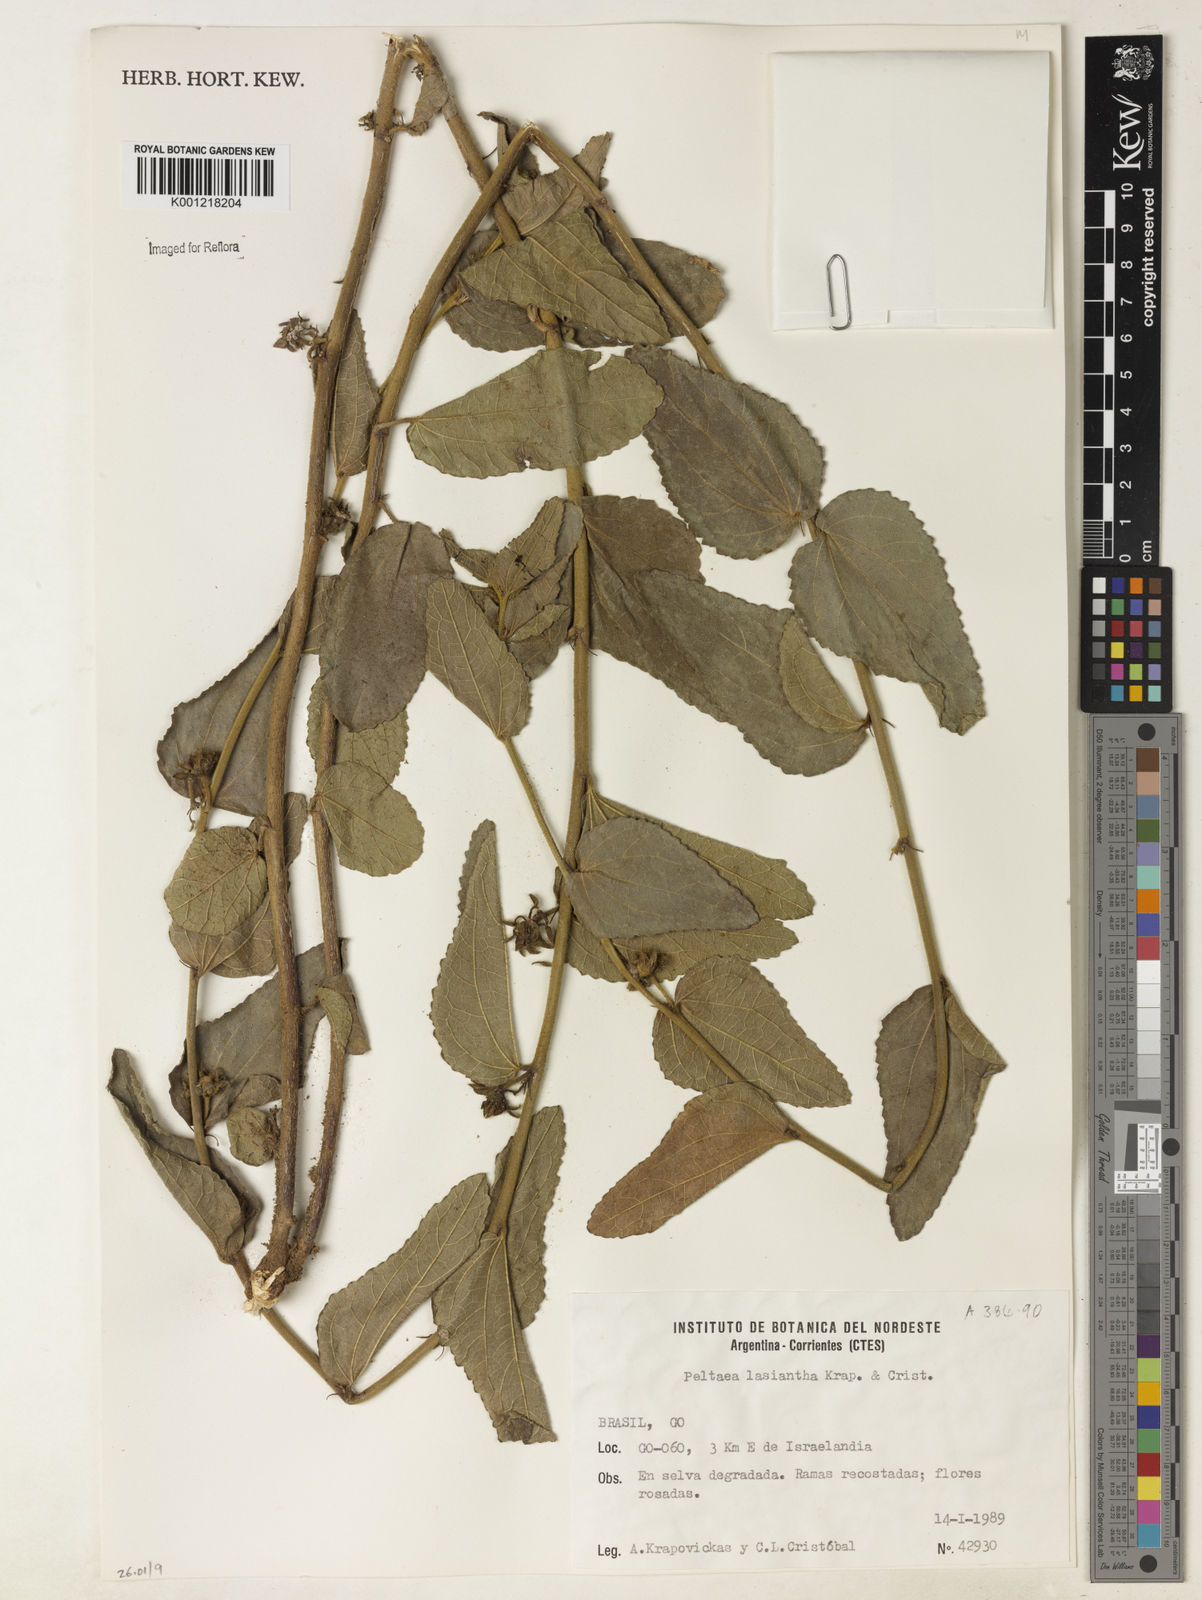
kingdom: Plantae
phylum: Tracheophyta
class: Magnoliopsida
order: Malvales
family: Malvaceae
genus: Peltaea
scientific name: Peltaea
